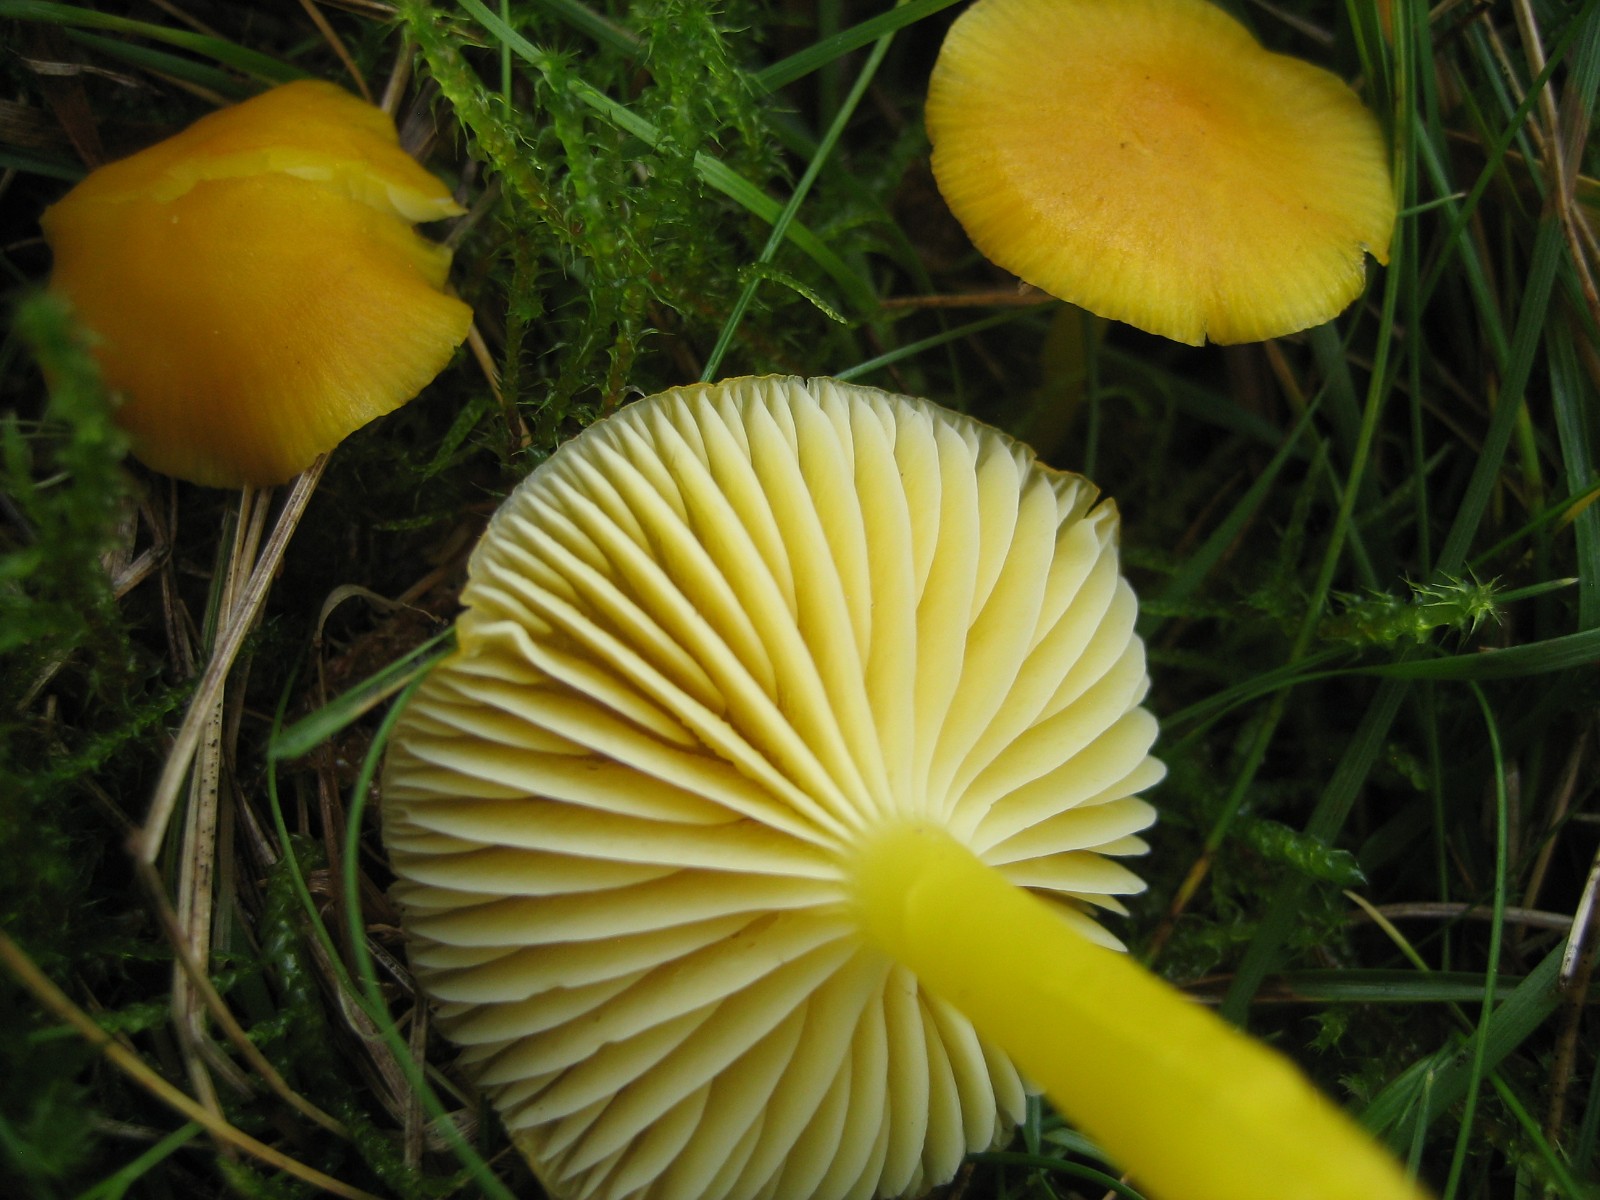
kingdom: Fungi
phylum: Basidiomycota
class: Agaricomycetes
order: Agaricales
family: Hygrophoraceae
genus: Hygrocybe
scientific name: Hygrocybe ceracea
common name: voksgul vokshat
